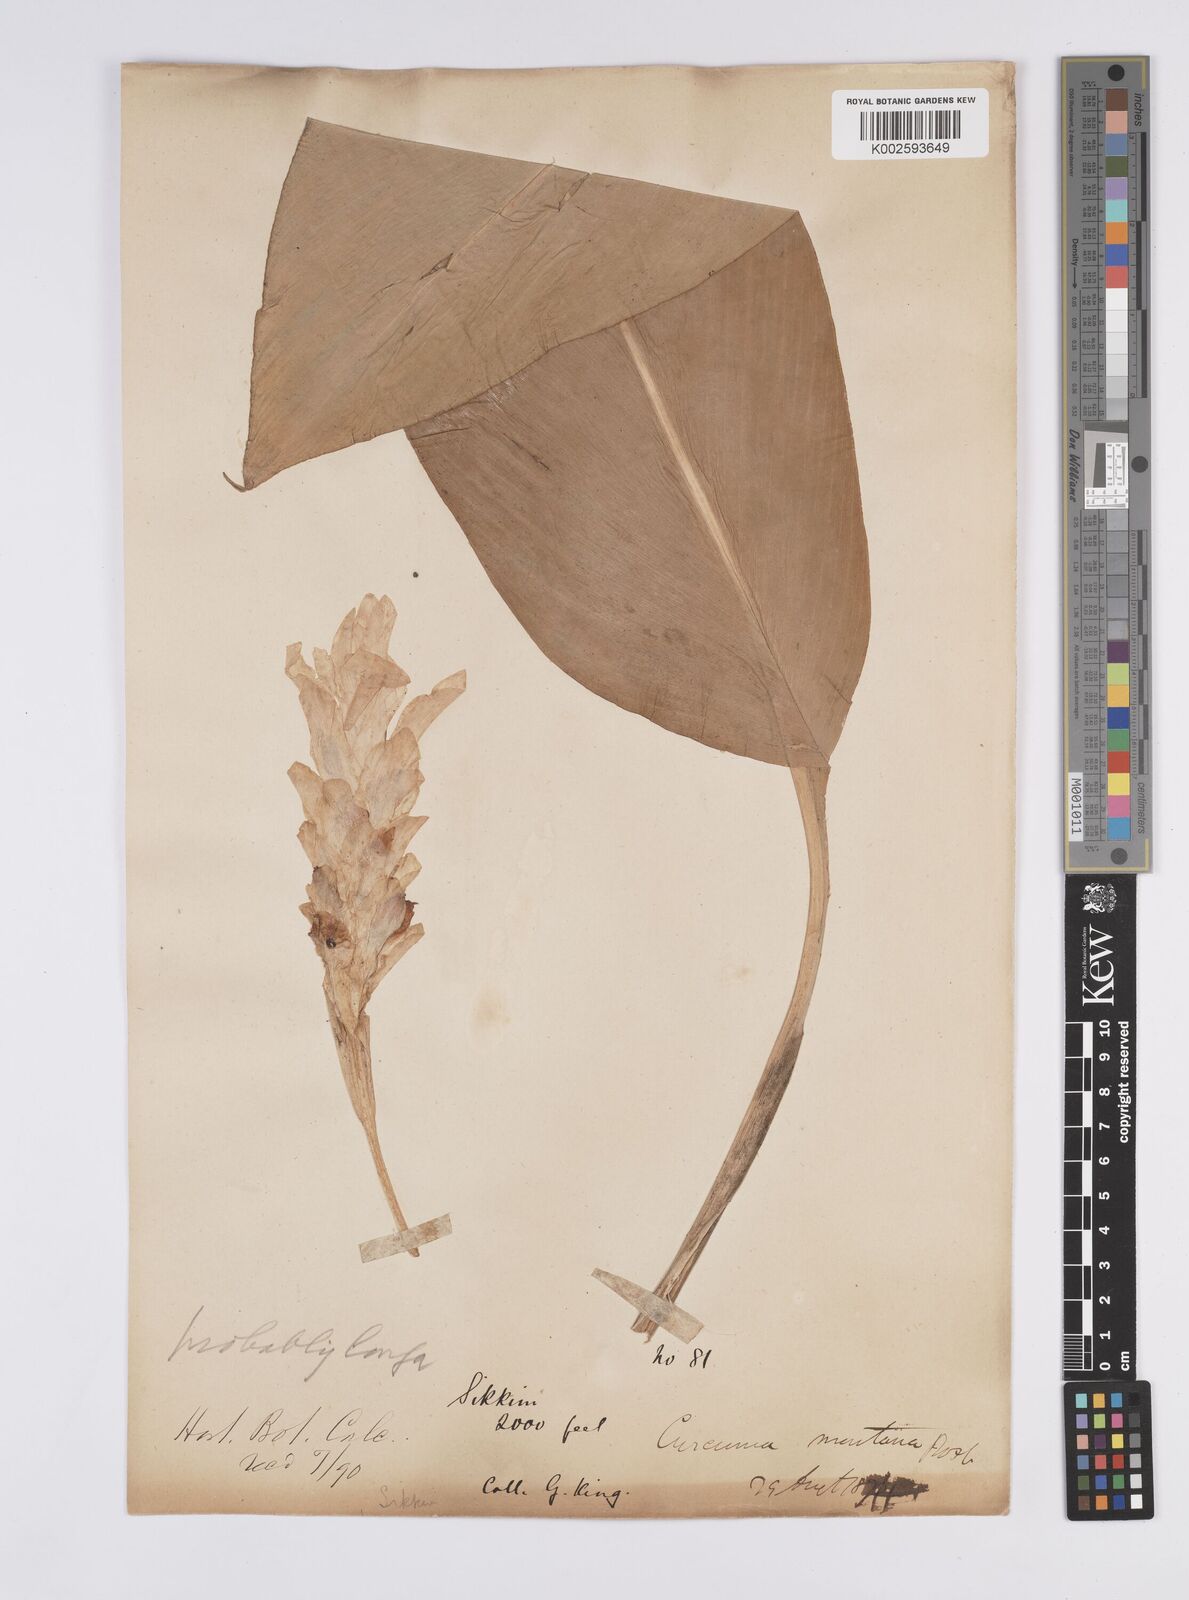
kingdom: Plantae
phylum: Tracheophyta
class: Liliopsida
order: Zingiberales
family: Zingiberaceae
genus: Curcuma
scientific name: Curcuma longa
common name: Turmeric
